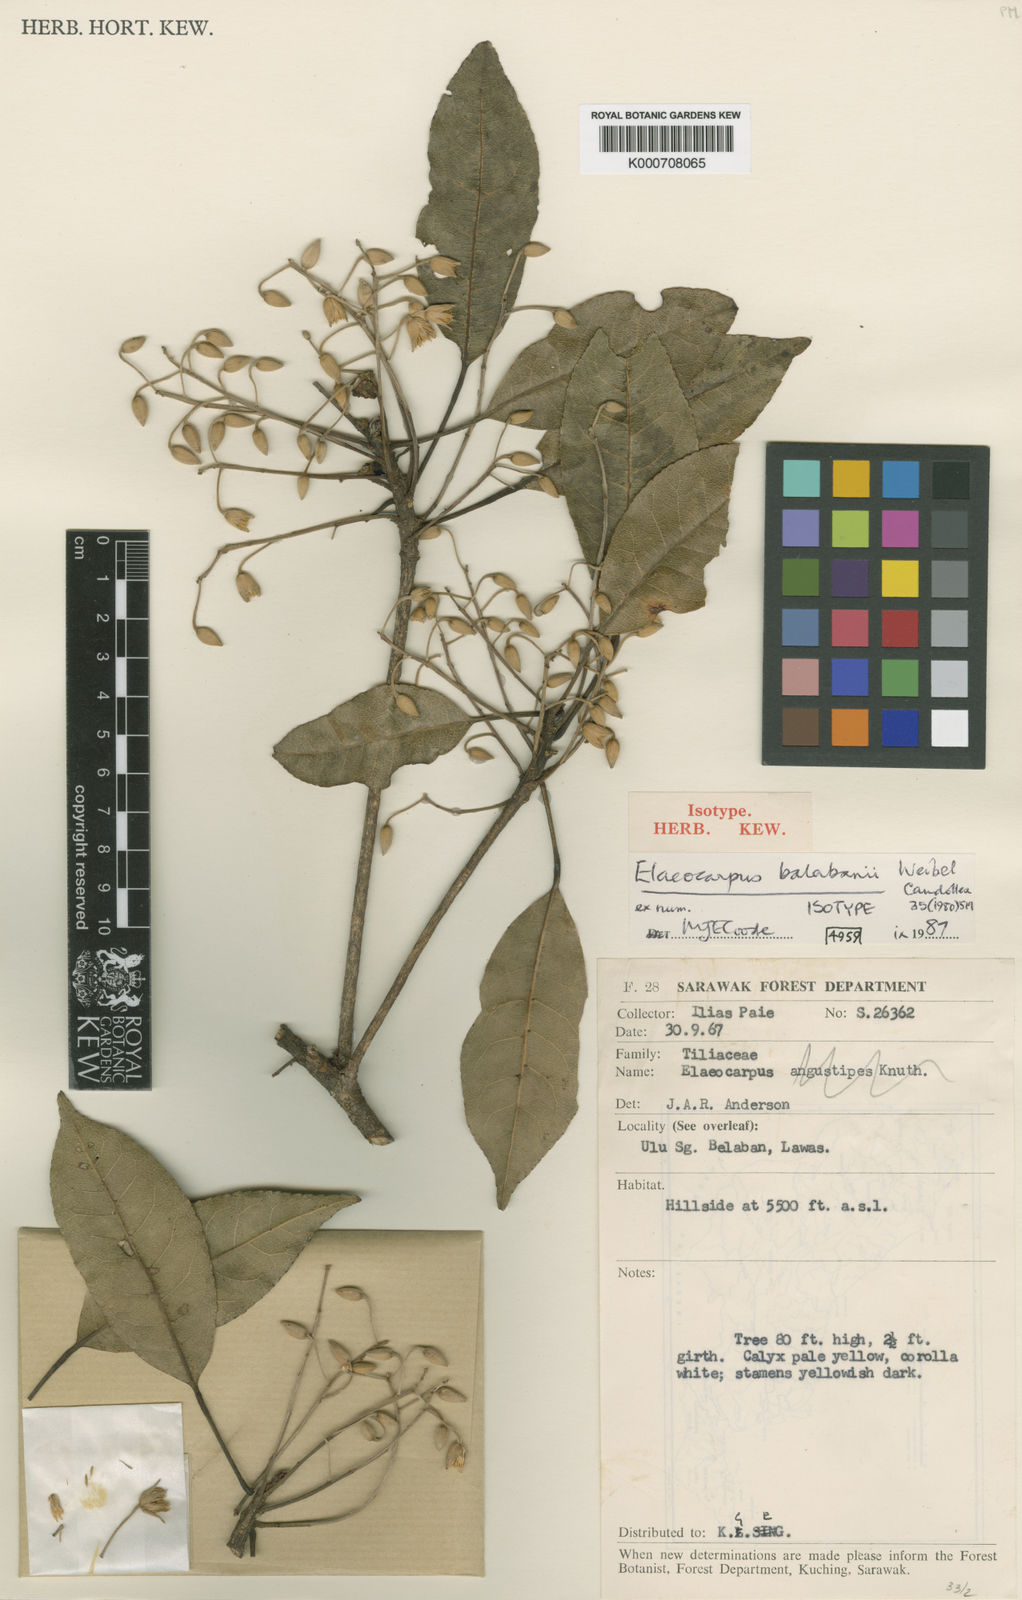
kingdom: Plantae
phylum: Tracheophyta
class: Magnoliopsida
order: Oxalidales
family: Elaeocarpaceae
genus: Elaeocarpus
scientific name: Elaeocarpus balabanii
